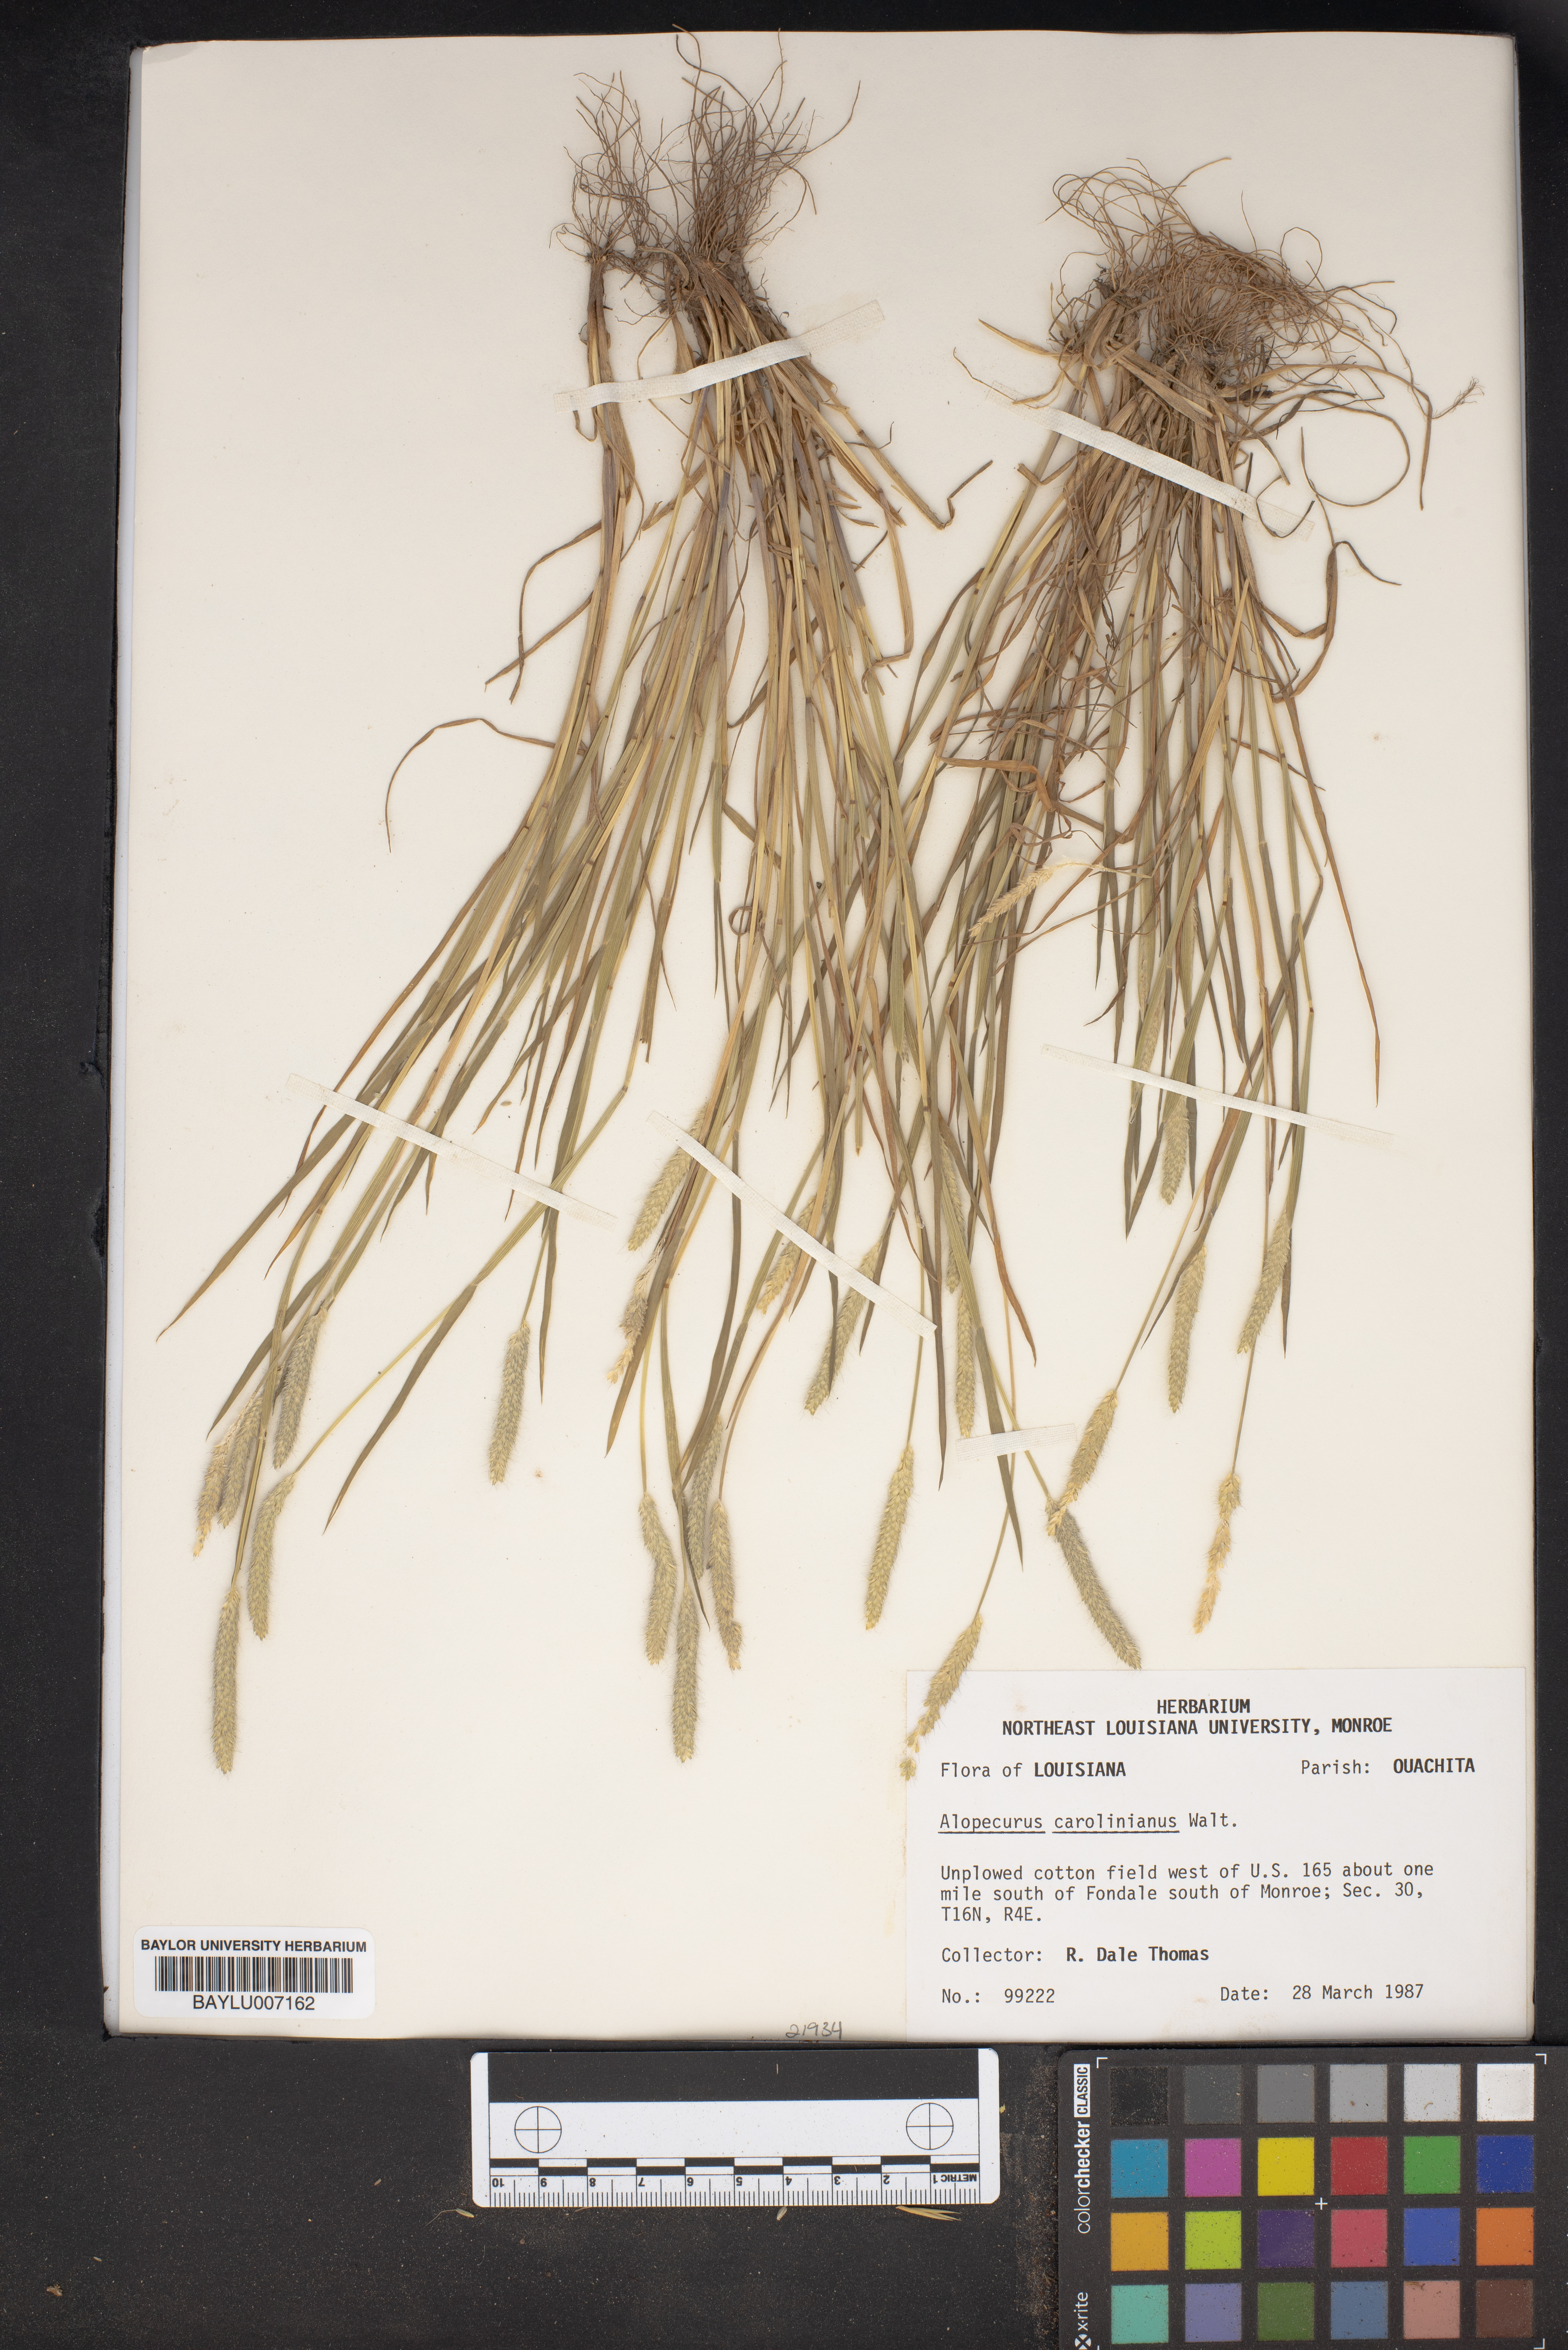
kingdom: Plantae
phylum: Tracheophyta
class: Liliopsida
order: Poales
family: Poaceae
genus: Alopecurus
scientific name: Alopecurus carolinianus
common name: Tufted foxtail
